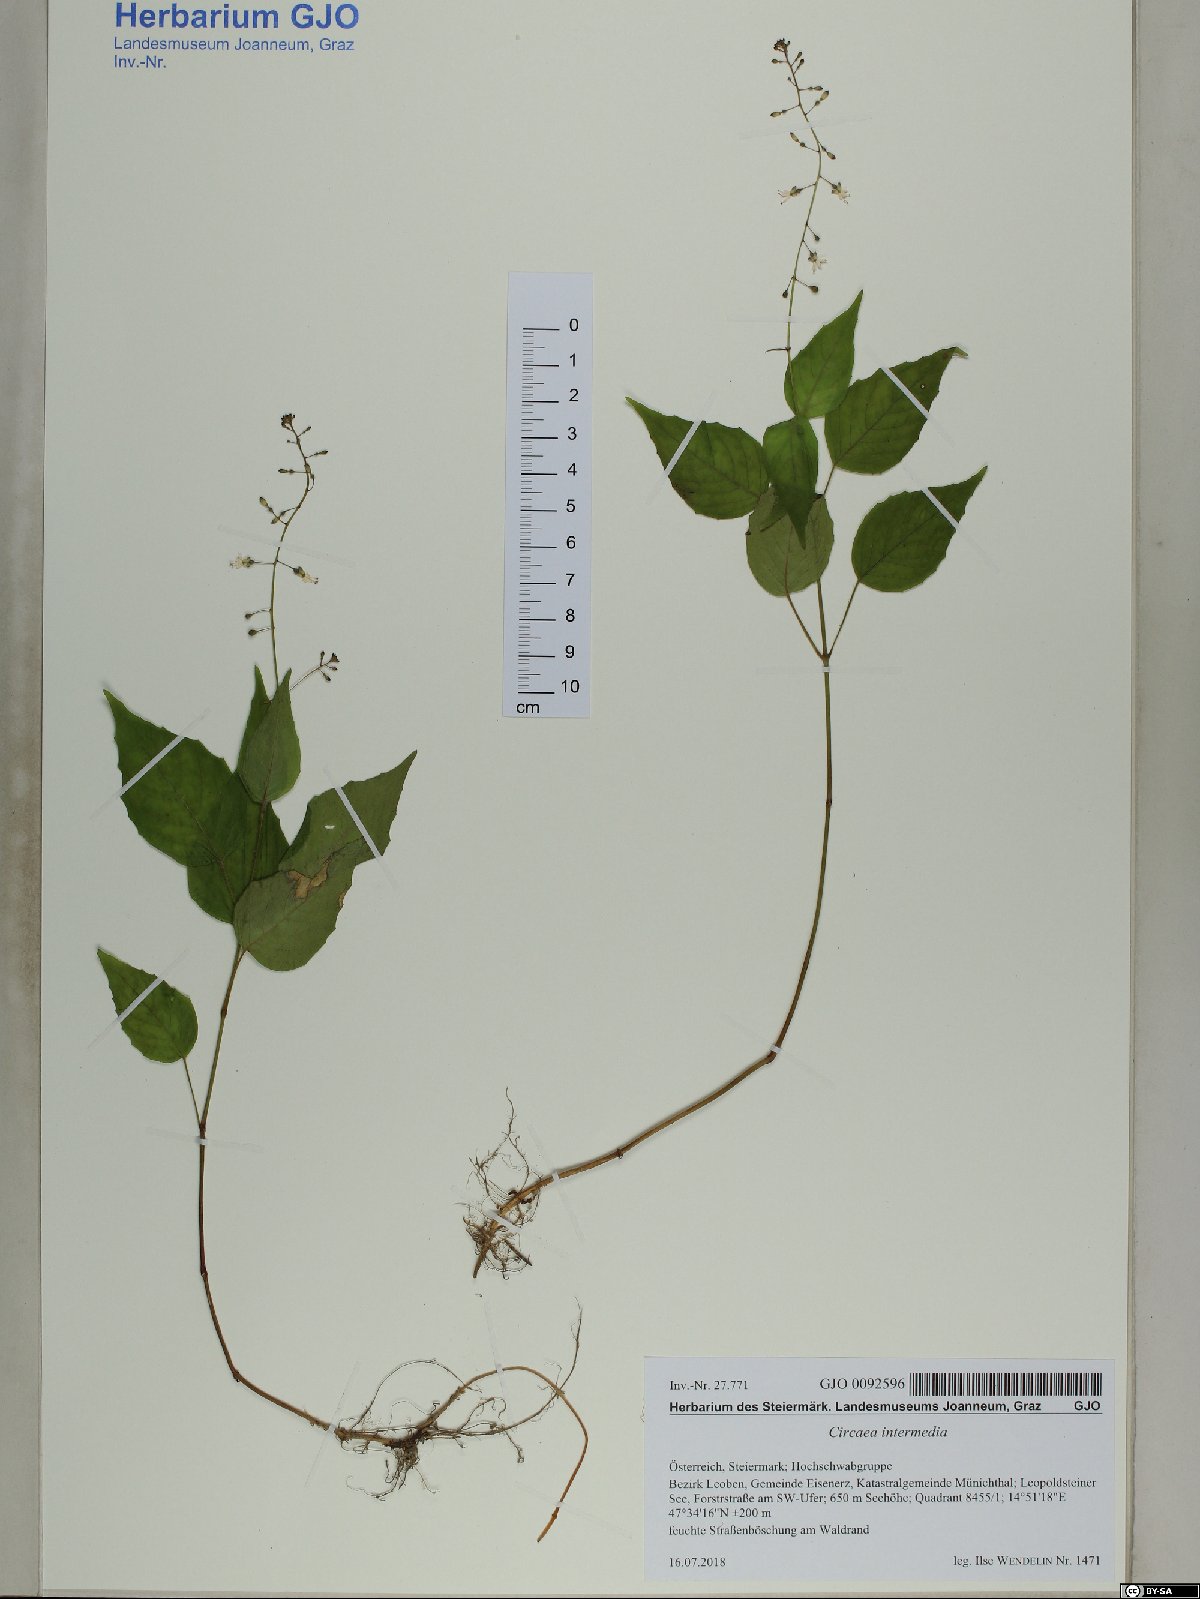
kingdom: Plantae
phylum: Tracheophyta
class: Magnoliopsida
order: Myrtales
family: Onagraceae
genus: Circaea
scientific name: Circaea intermedia
